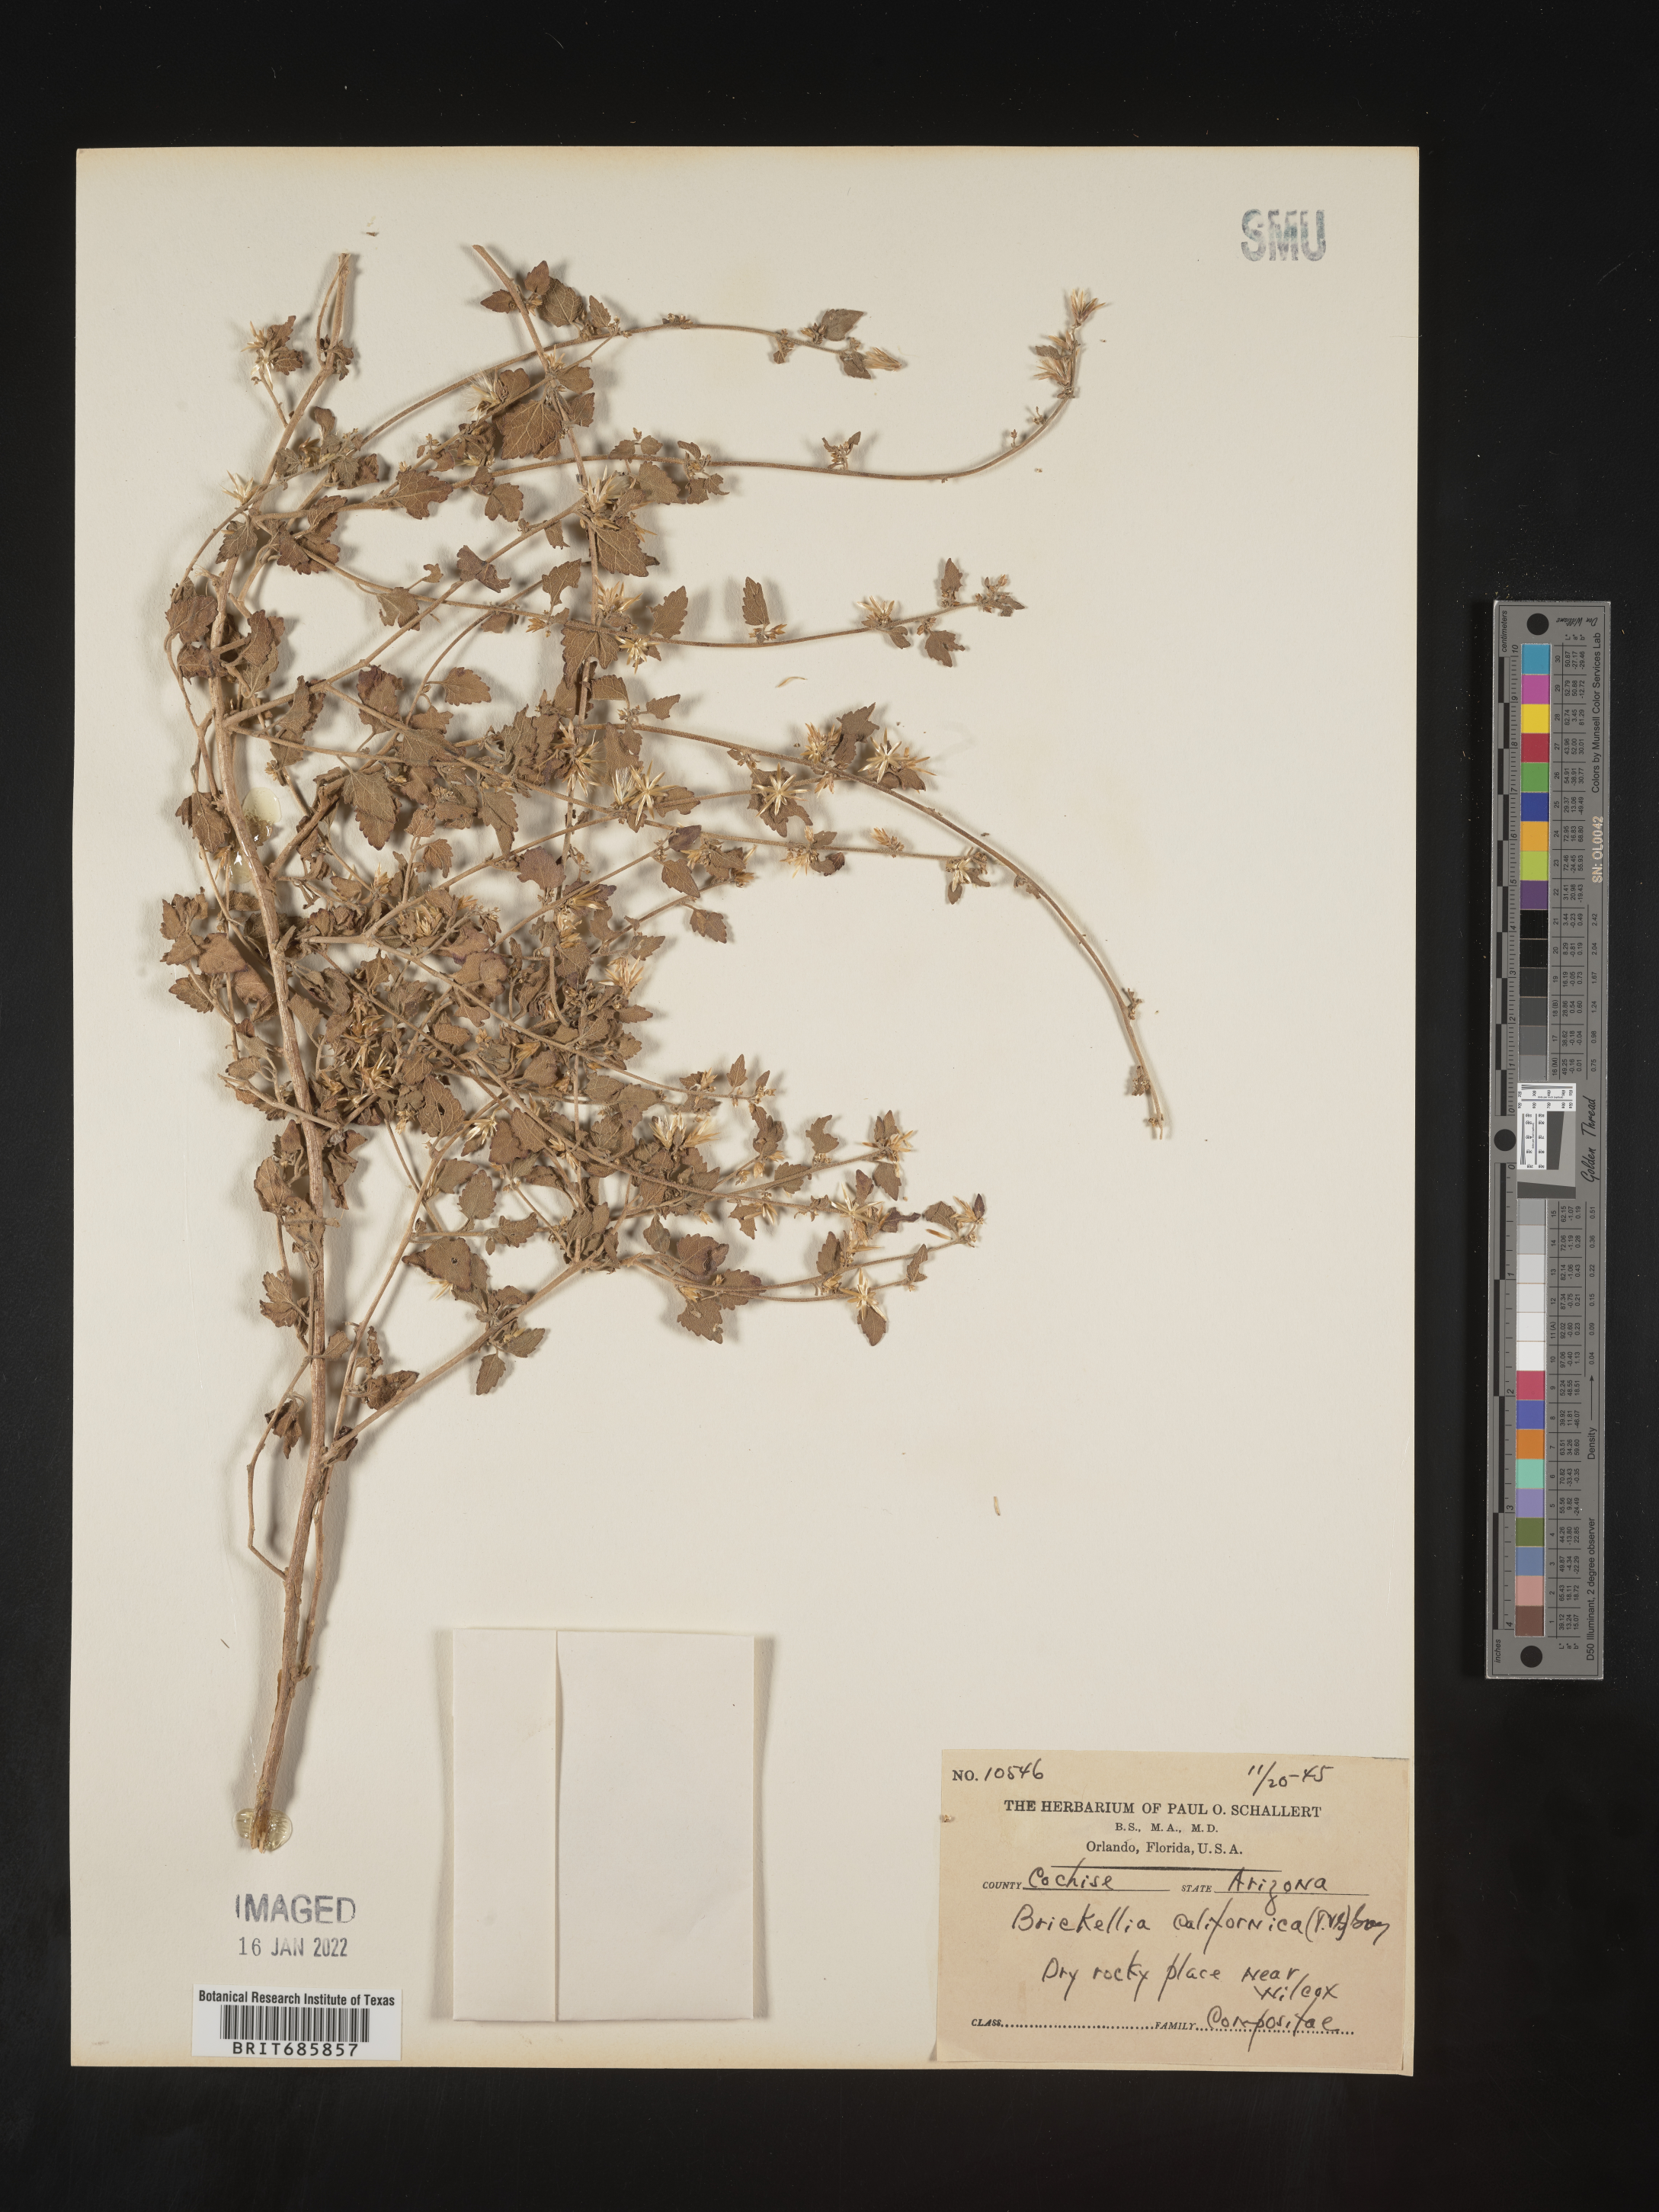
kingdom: Plantae
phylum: Tracheophyta
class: Magnoliopsida
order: Asterales
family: Asteraceae
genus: Brickellia
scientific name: Brickellia californica
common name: California brickellbush
